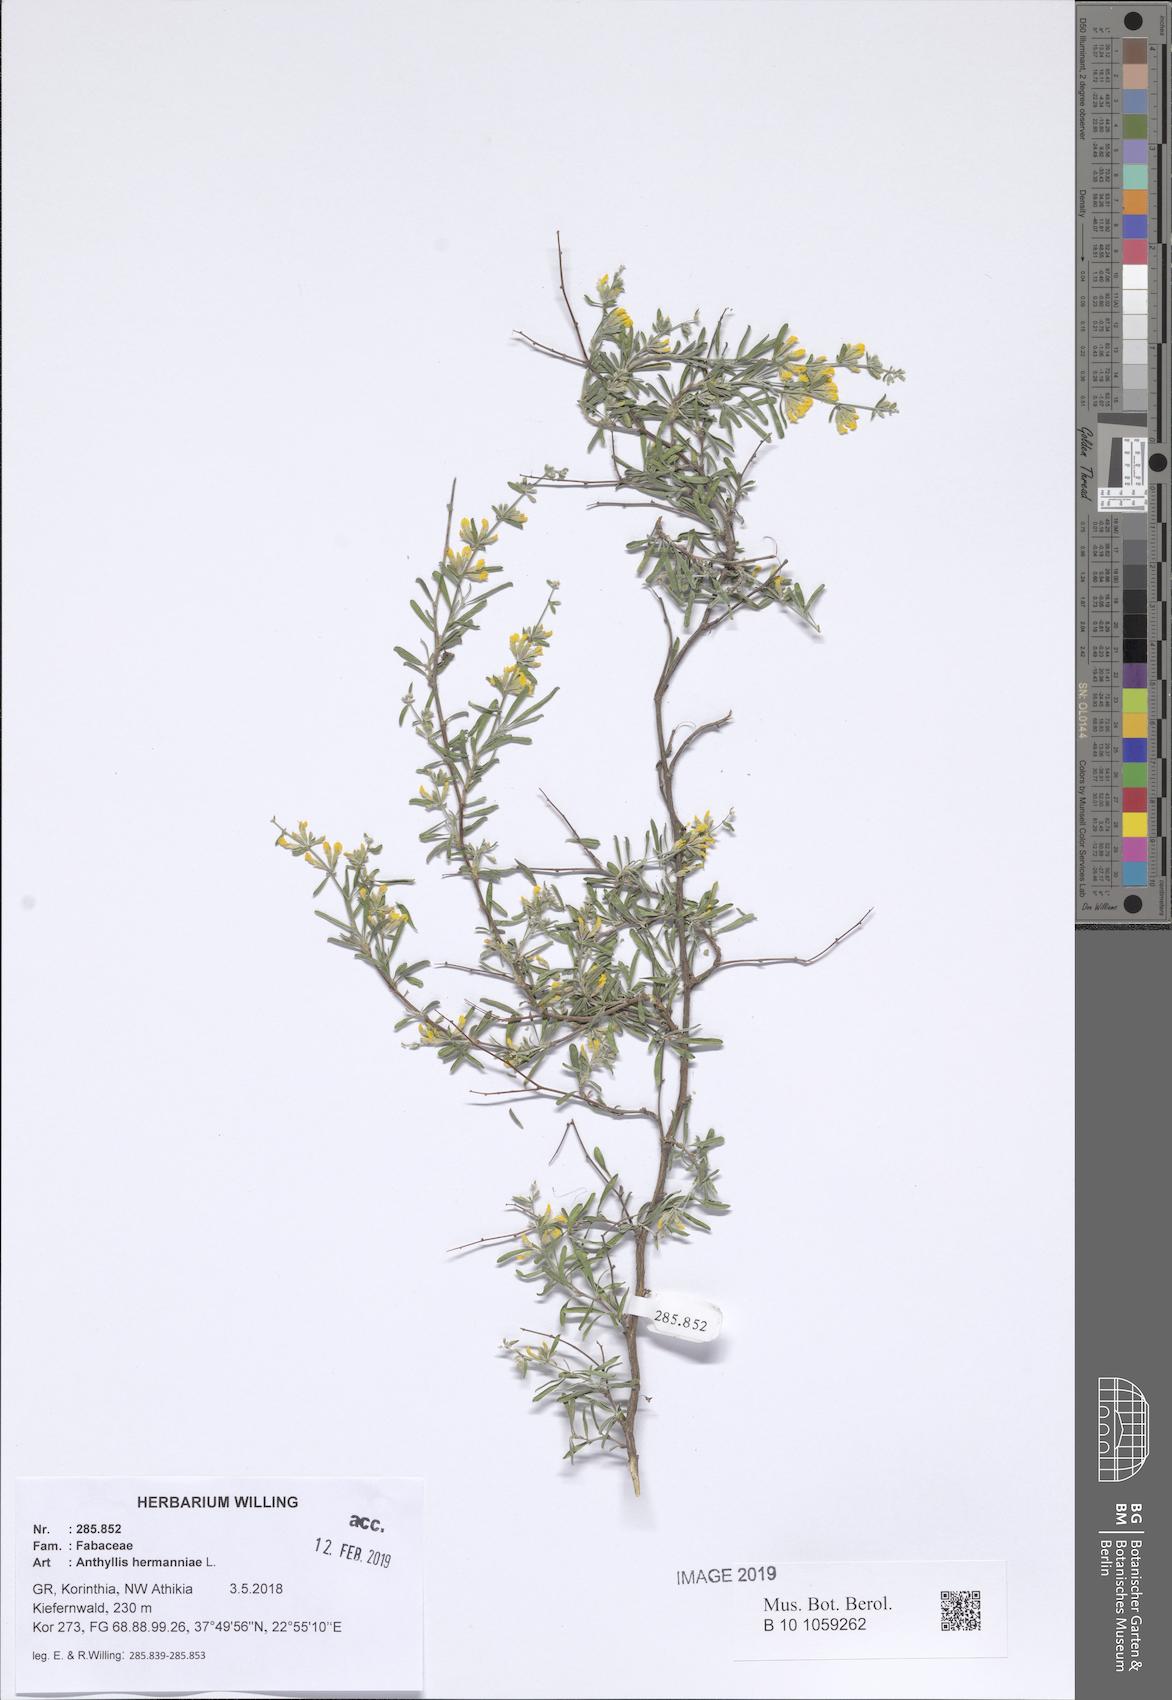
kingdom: Plantae
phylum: Tracheophyta
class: Magnoliopsida
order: Fabales
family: Fabaceae
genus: Anthyllis
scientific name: Anthyllis hermanniae
